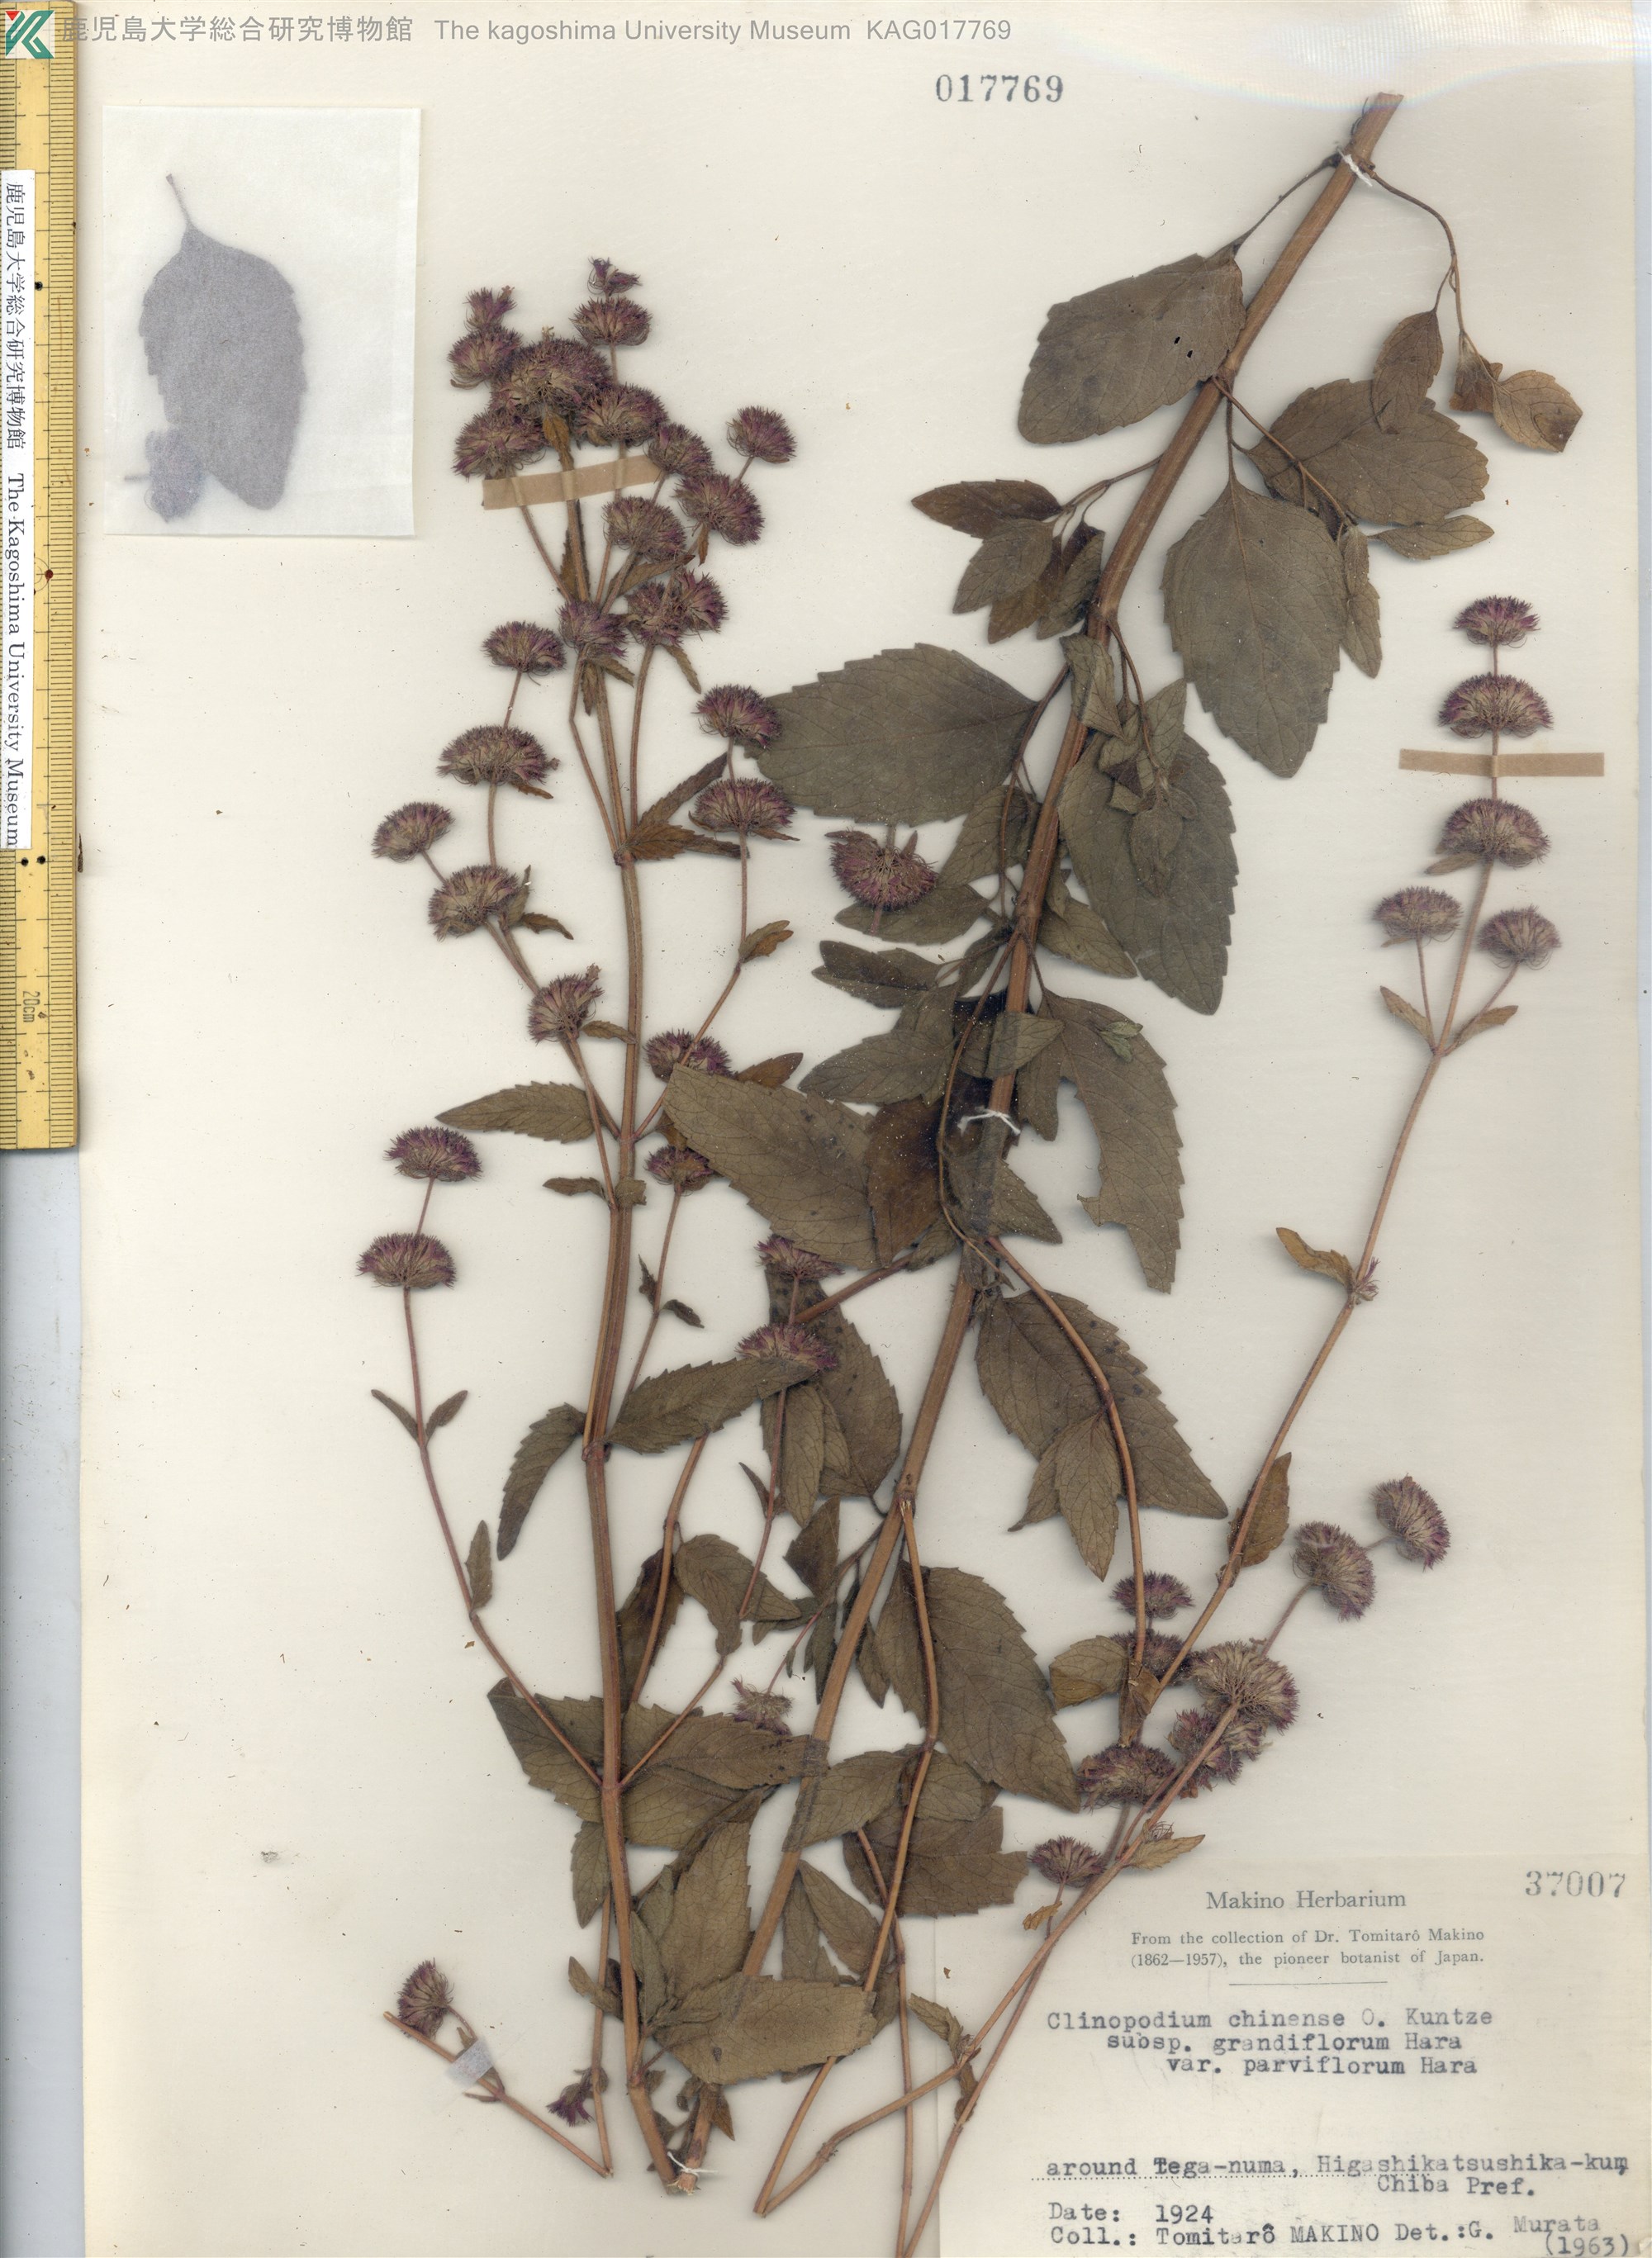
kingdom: Plantae
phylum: Tracheophyta
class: Magnoliopsida
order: Lamiales
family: Lamiaceae
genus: Clinopodium
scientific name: Clinopodium chinense
